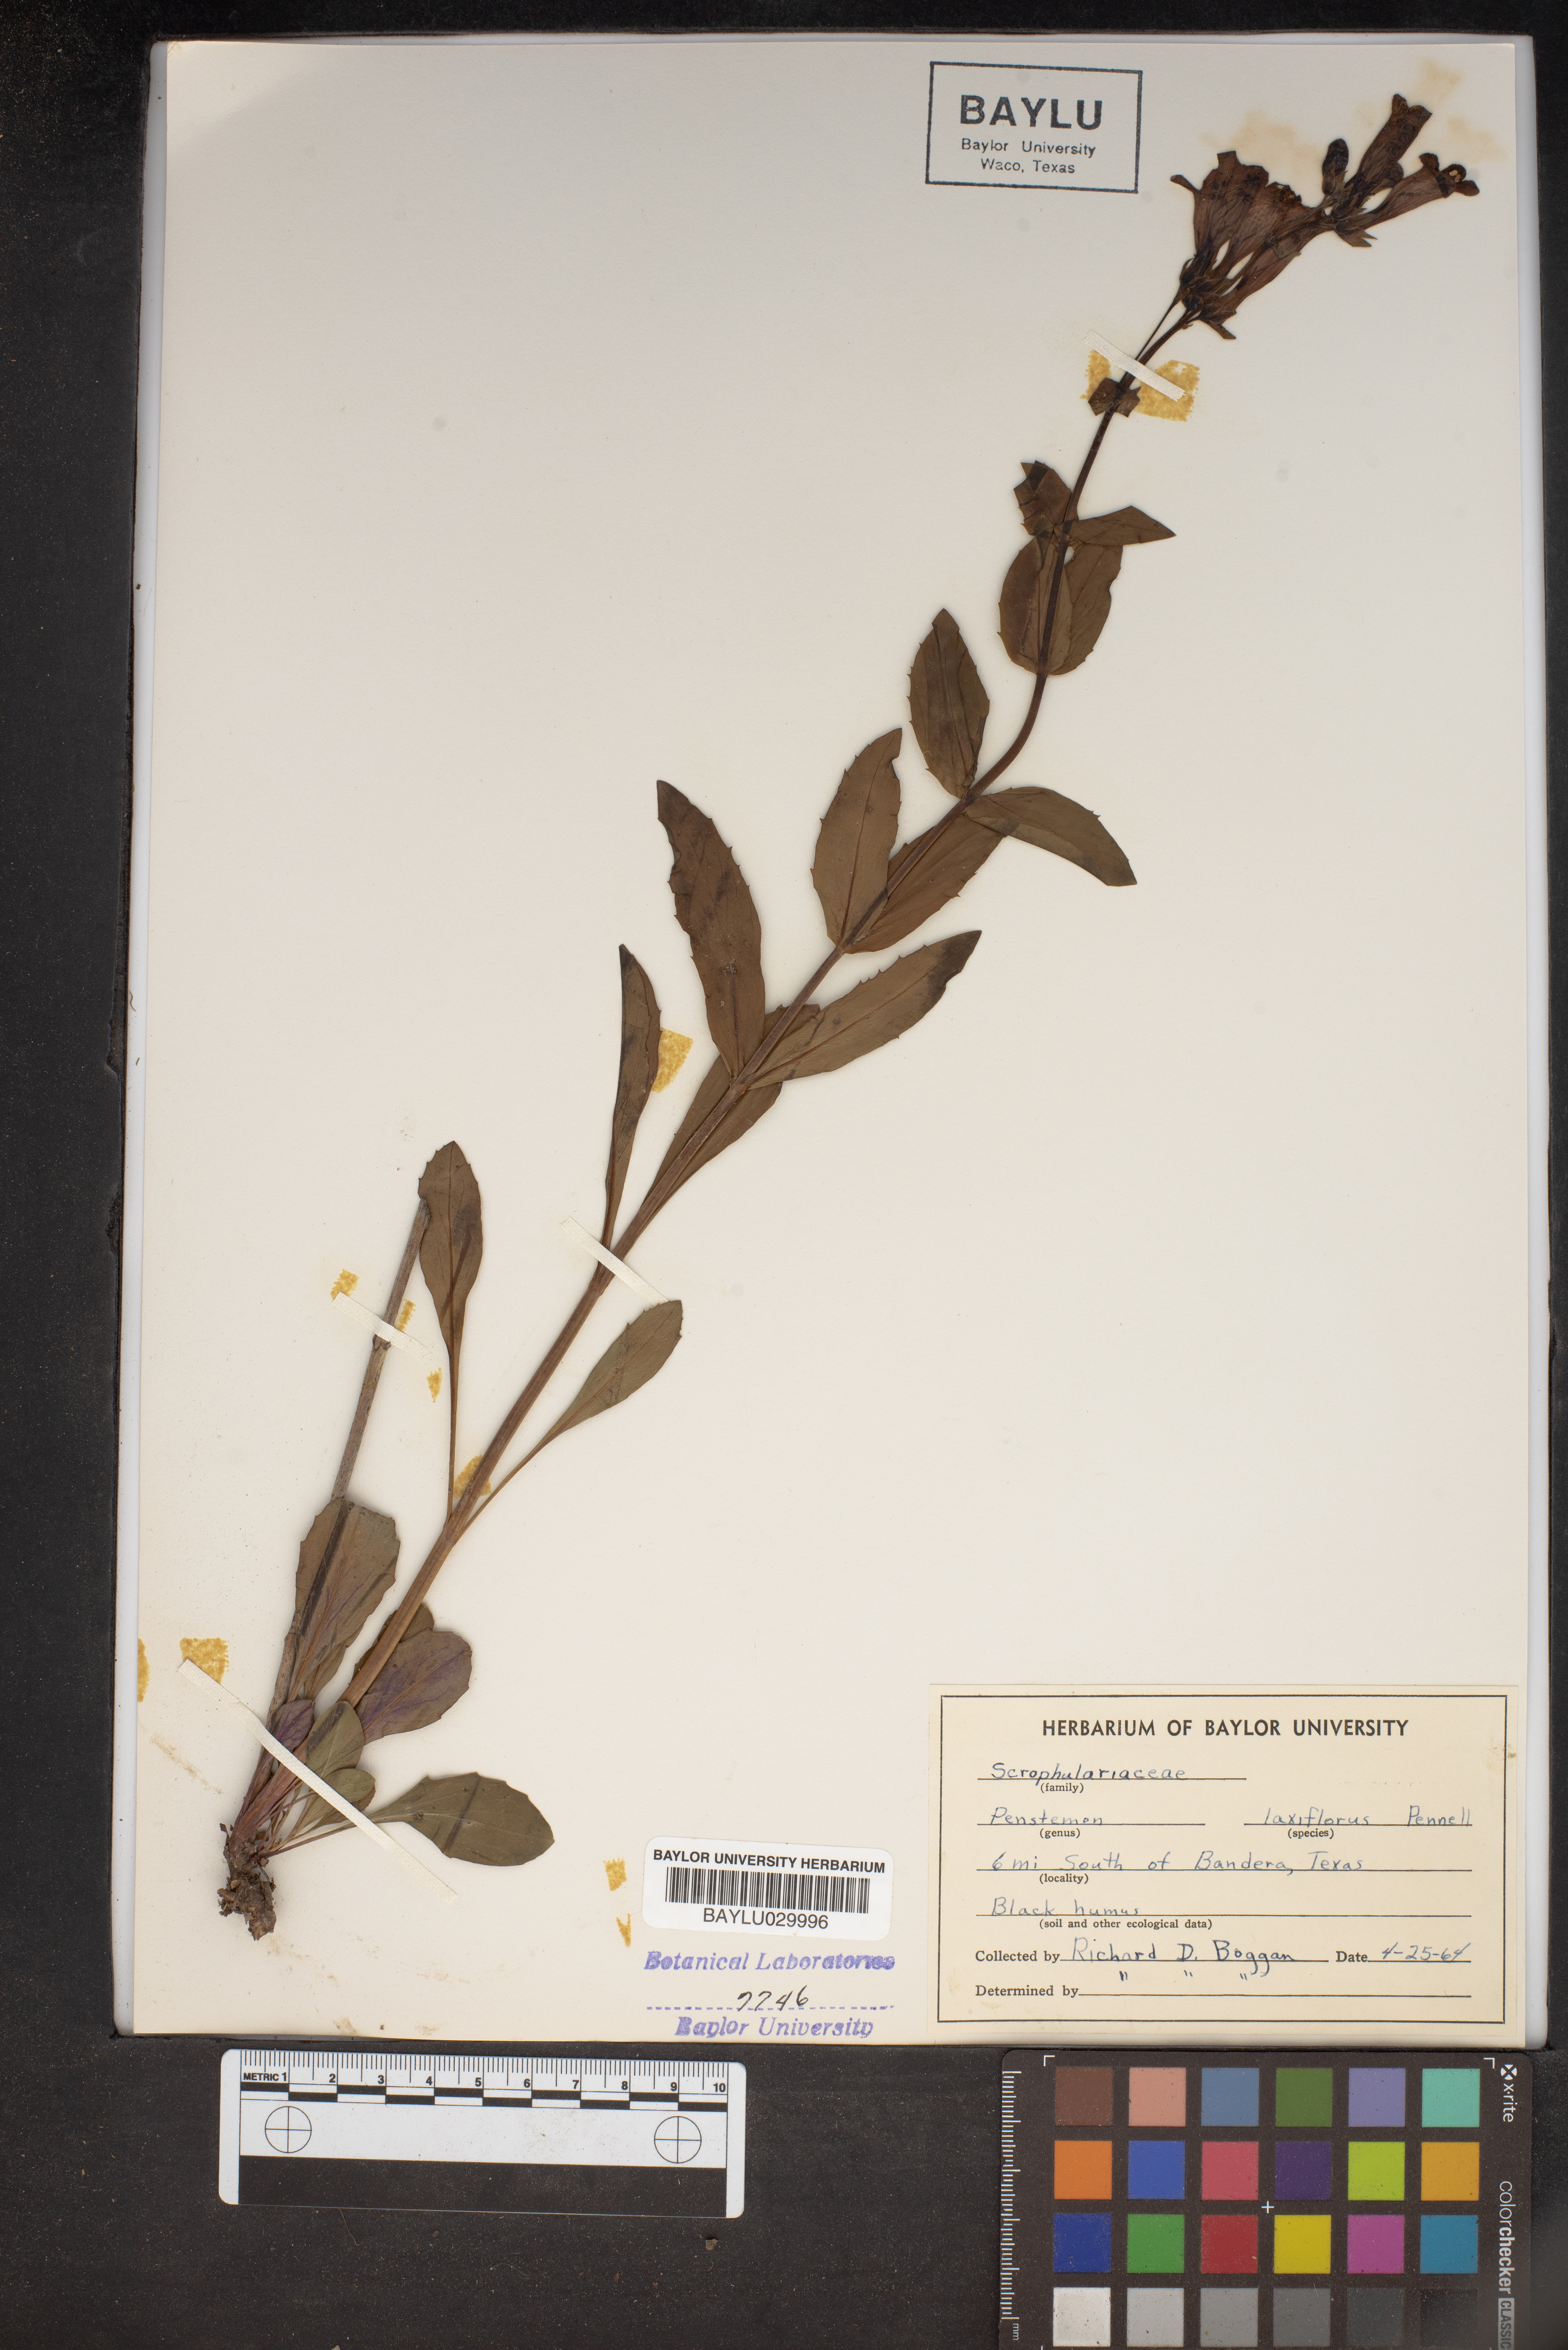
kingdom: Plantae
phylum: Tracheophyta
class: Magnoliopsida
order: Lamiales
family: Plantaginaceae
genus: Penstemon
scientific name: Penstemon laxiflorus
